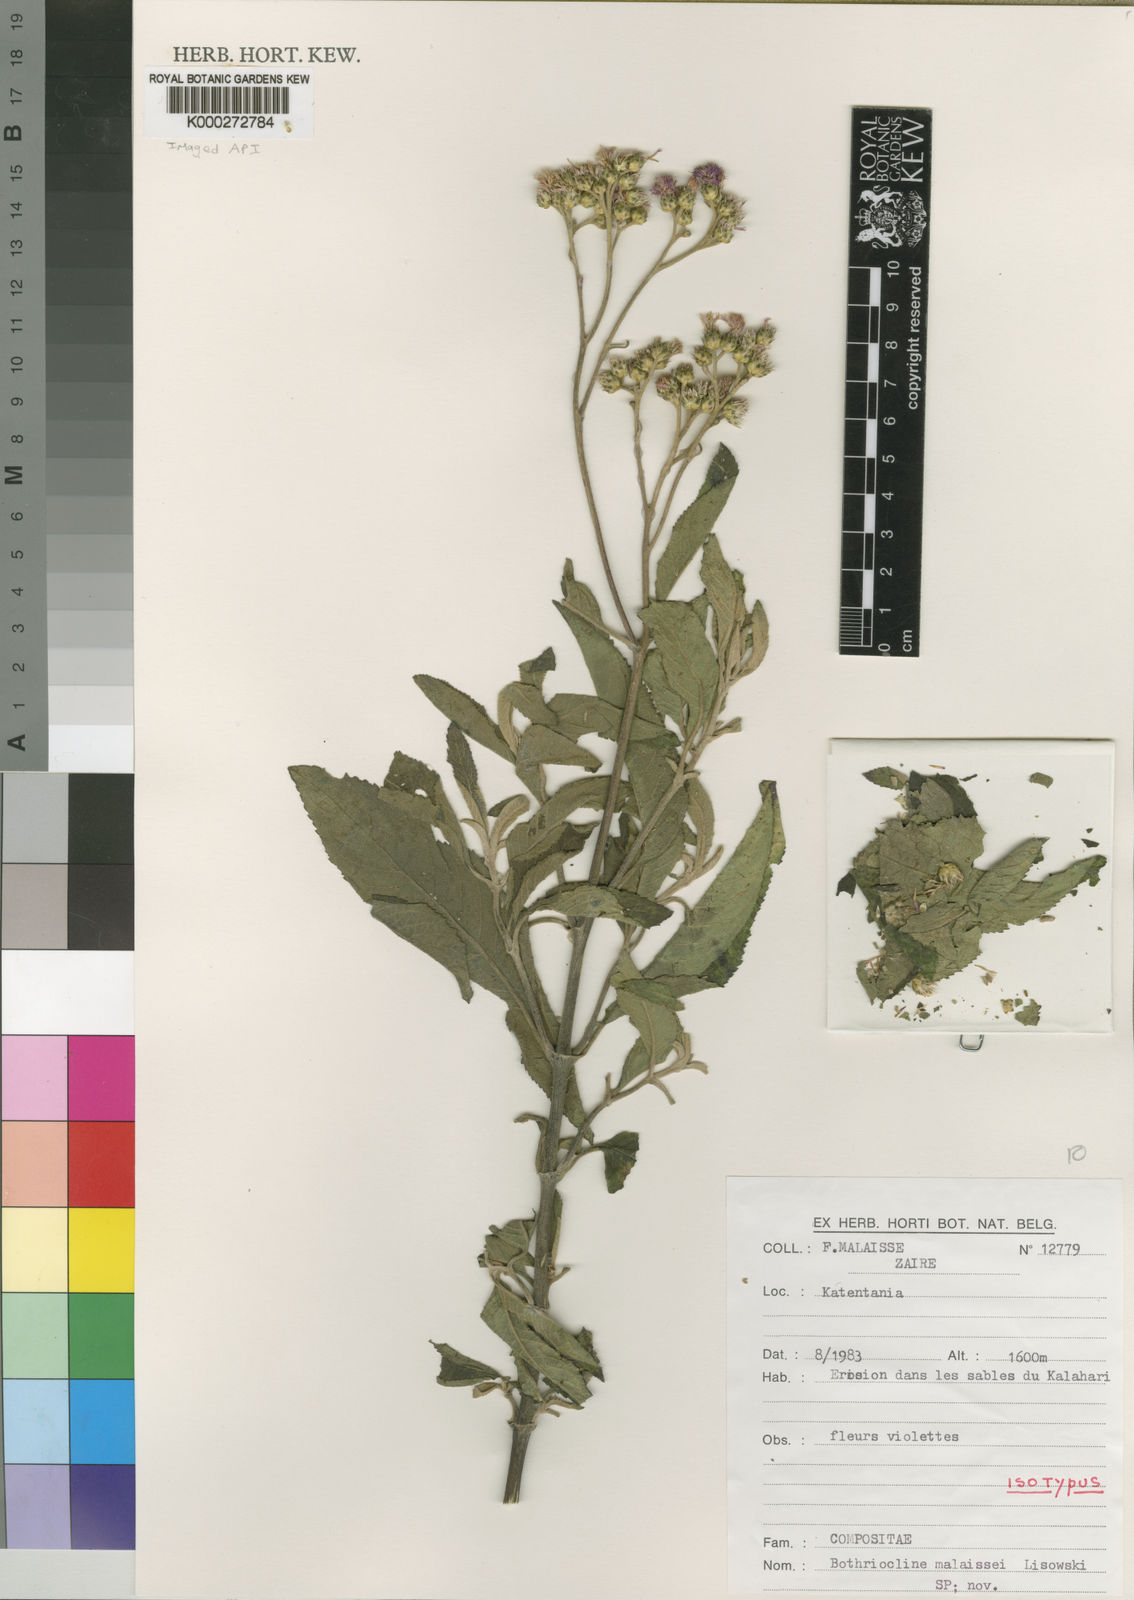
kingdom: Plantae
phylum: Tracheophyta
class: Magnoliopsida
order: Asterales
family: Asteraceae
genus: Bothriocline
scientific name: Bothriocline malaissei
